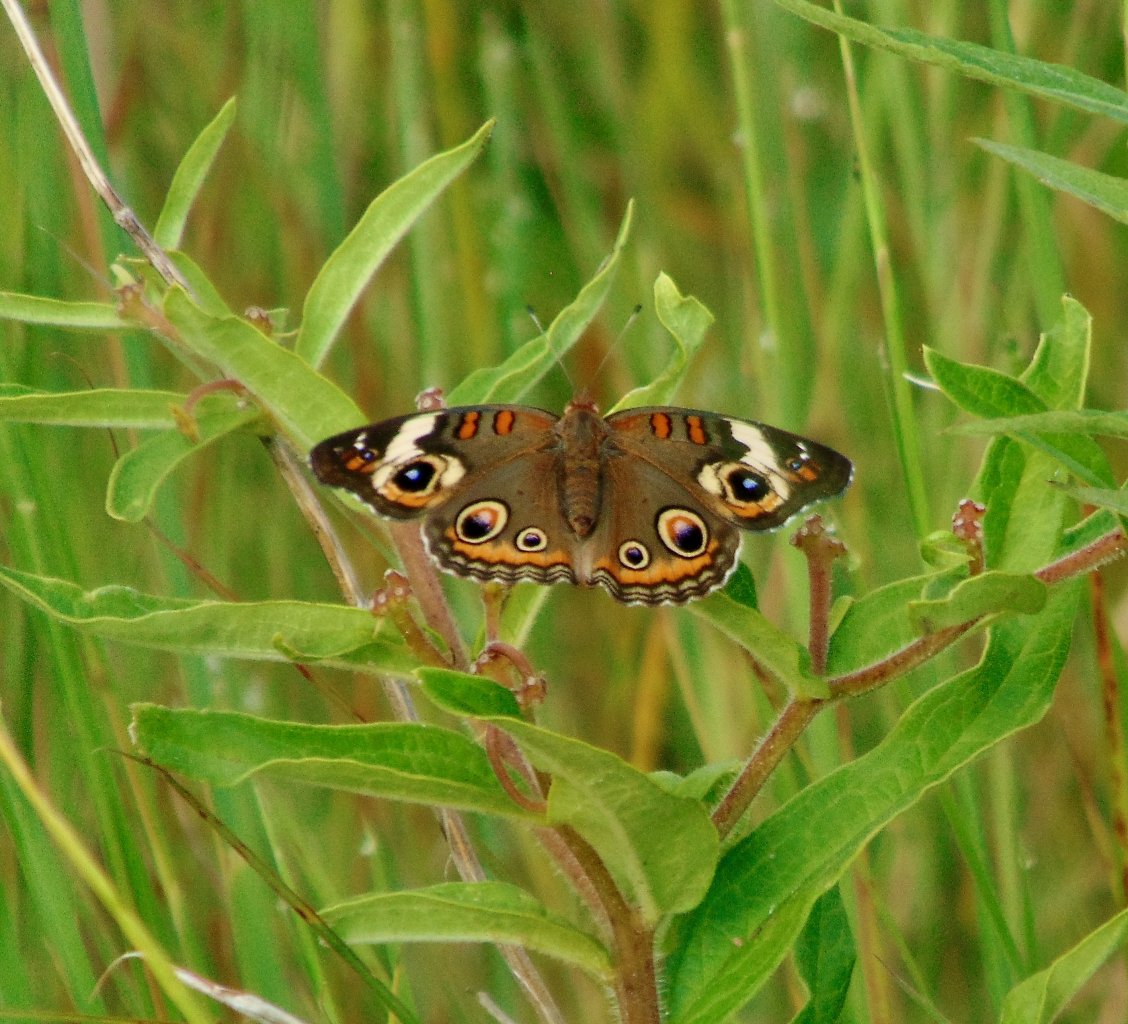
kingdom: Animalia
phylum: Arthropoda
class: Insecta
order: Lepidoptera
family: Nymphalidae
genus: Junonia
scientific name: Junonia coenia
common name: Common Buckeye
